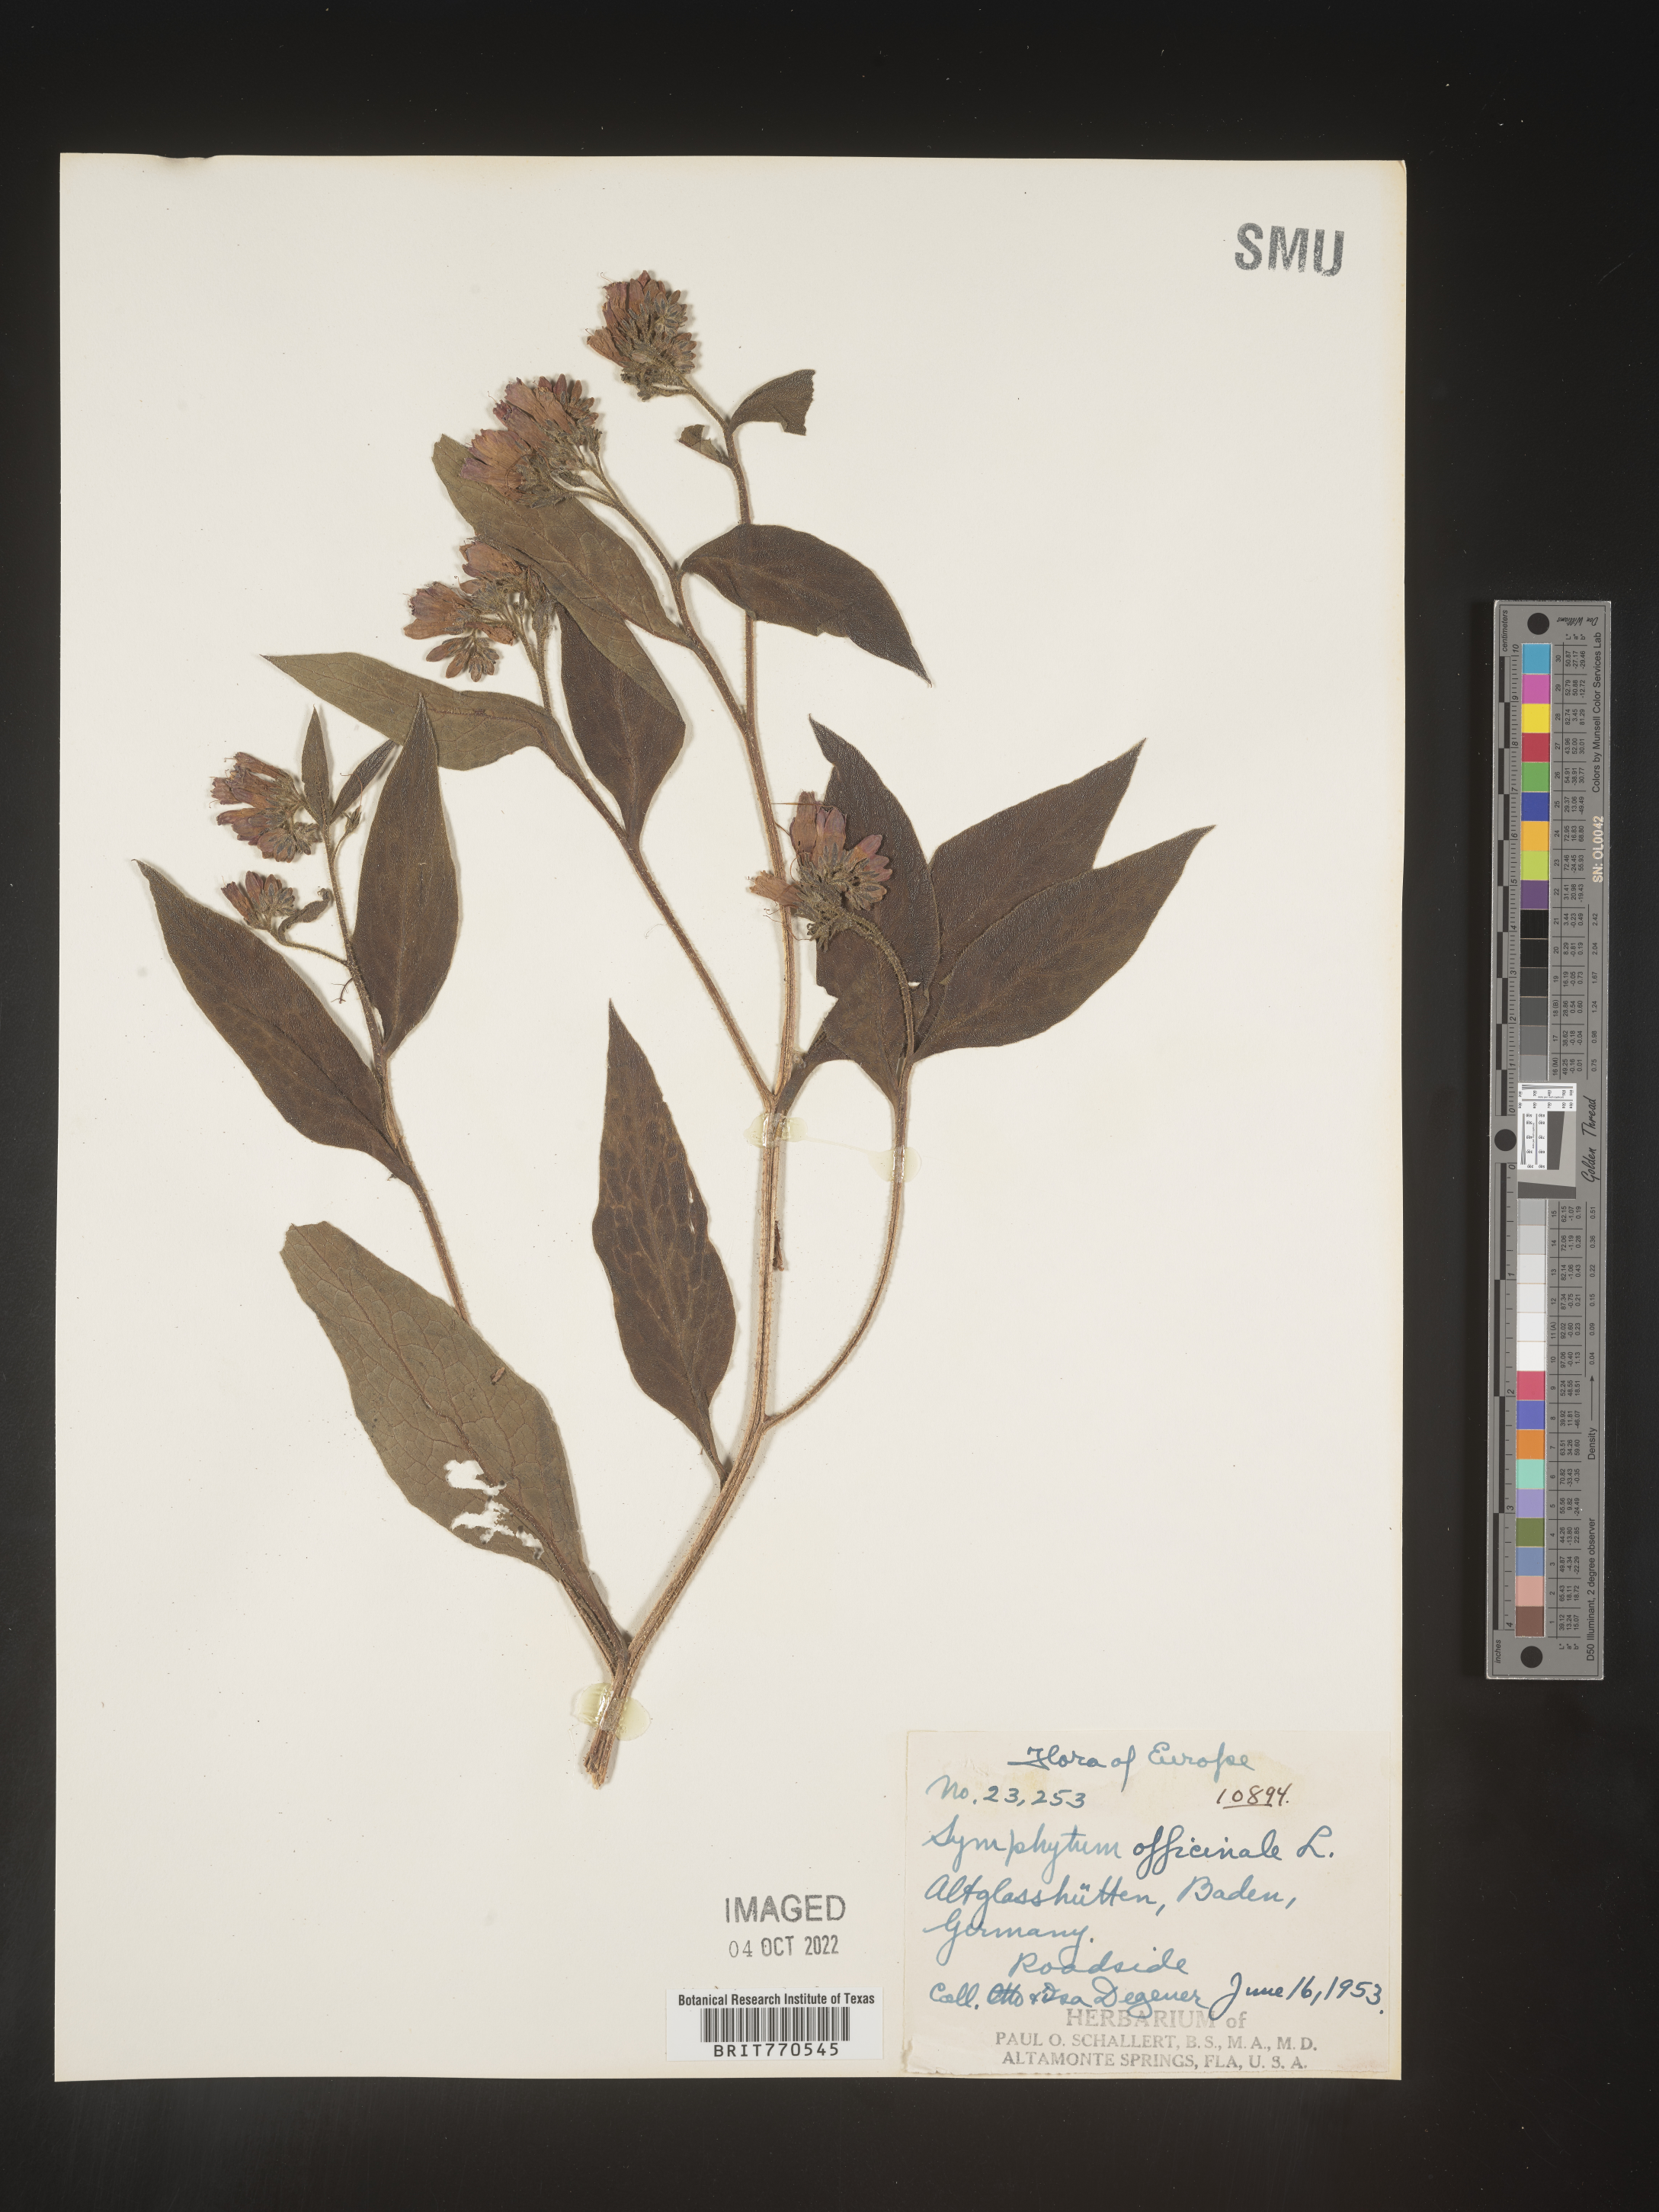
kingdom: Plantae
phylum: Tracheophyta
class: Magnoliopsida
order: Boraginales
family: Boraginaceae
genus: Symphytum
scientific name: Symphytum
